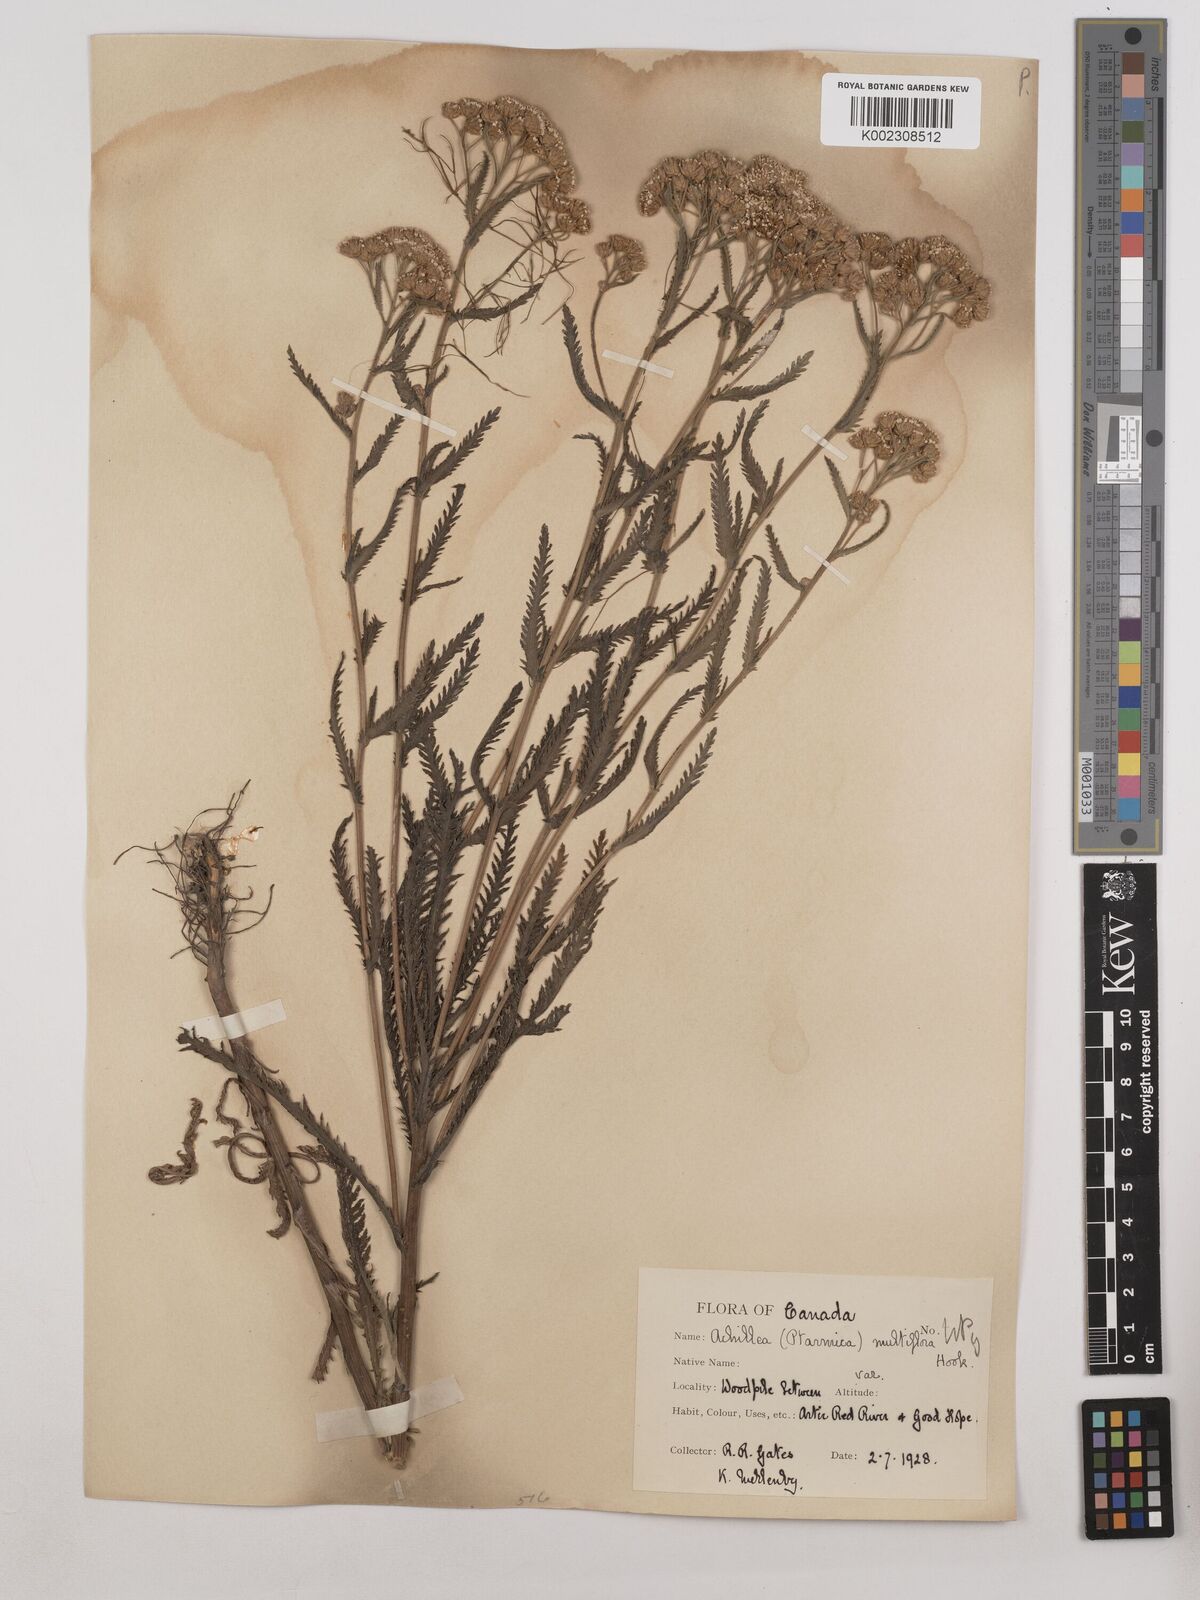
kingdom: Plantae
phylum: Tracheophyta
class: Magnoliopsida
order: Asterales
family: Asteraceae
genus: Achillea
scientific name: Achillea alpina
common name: Siberian yarrow
